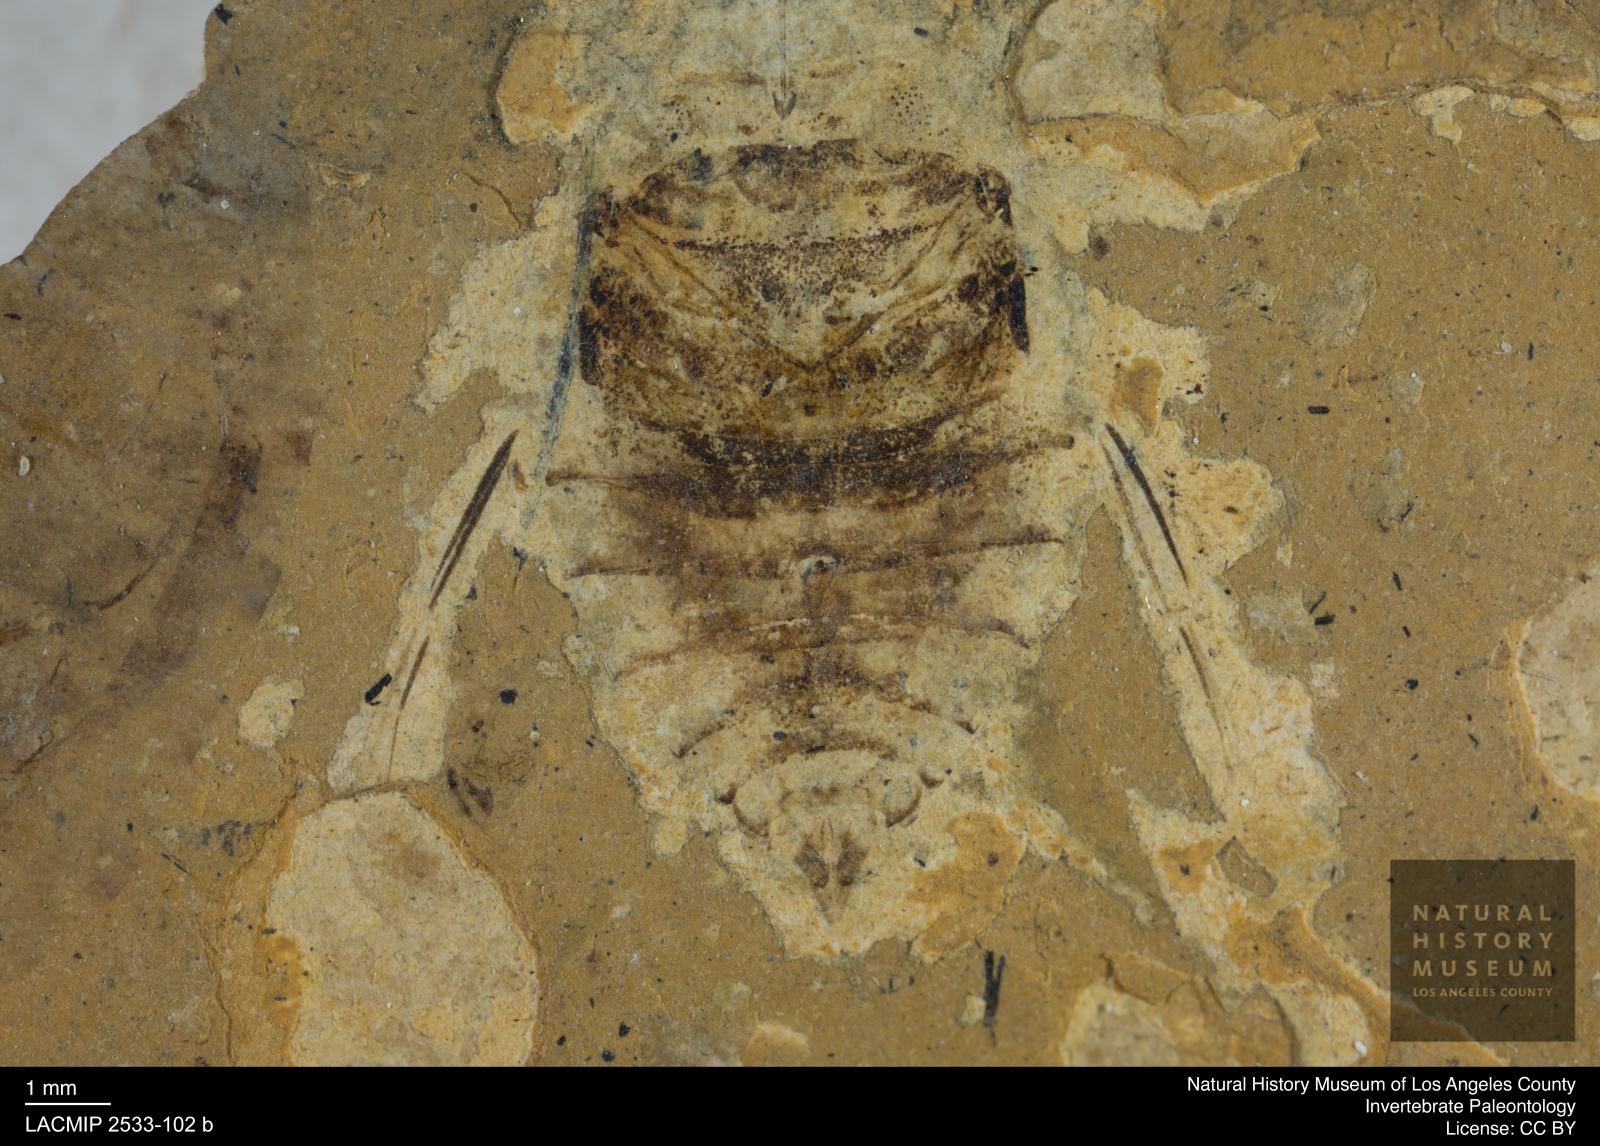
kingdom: Animalia
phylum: Arthropoda
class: Insecta
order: Hemiptera
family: Naucoridae
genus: Naucoris
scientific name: Naucoris rottensis
